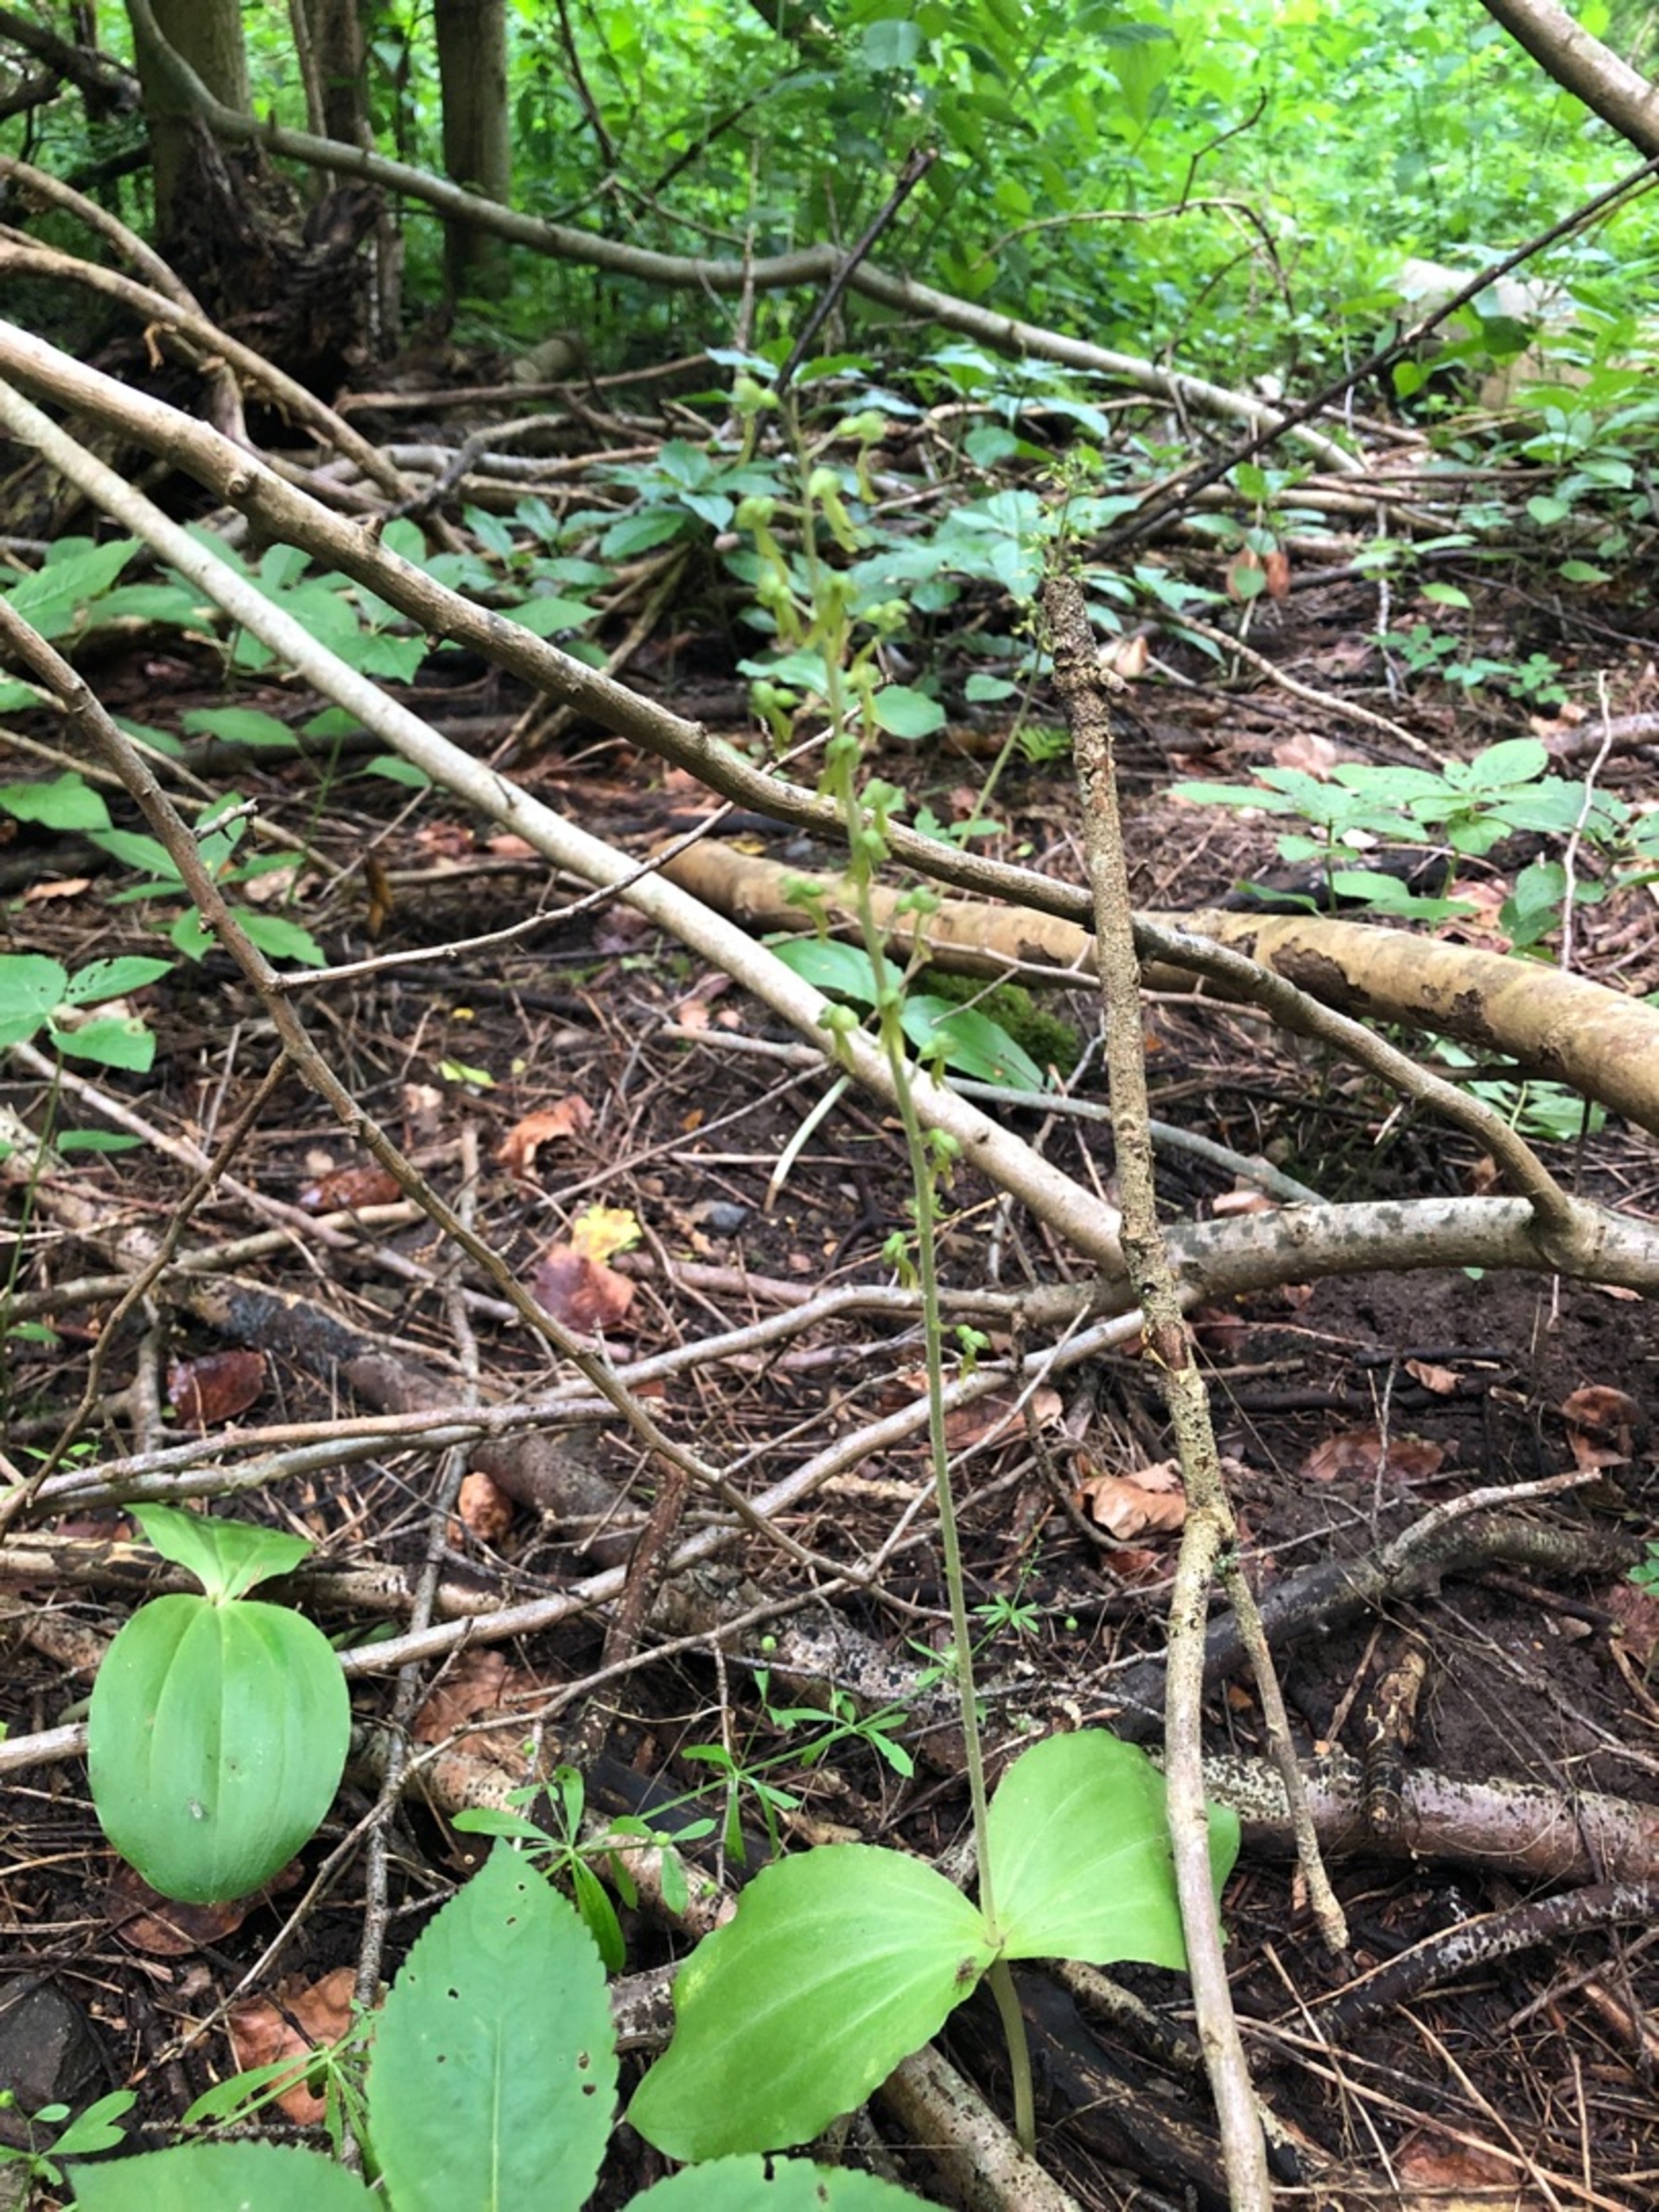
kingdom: Plantae
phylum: Tracheophyta
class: Liliopsida
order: Asparagales
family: Orchidaceae
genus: Neottia
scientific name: Neottia ovata
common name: Ægbladet fliglæbe
